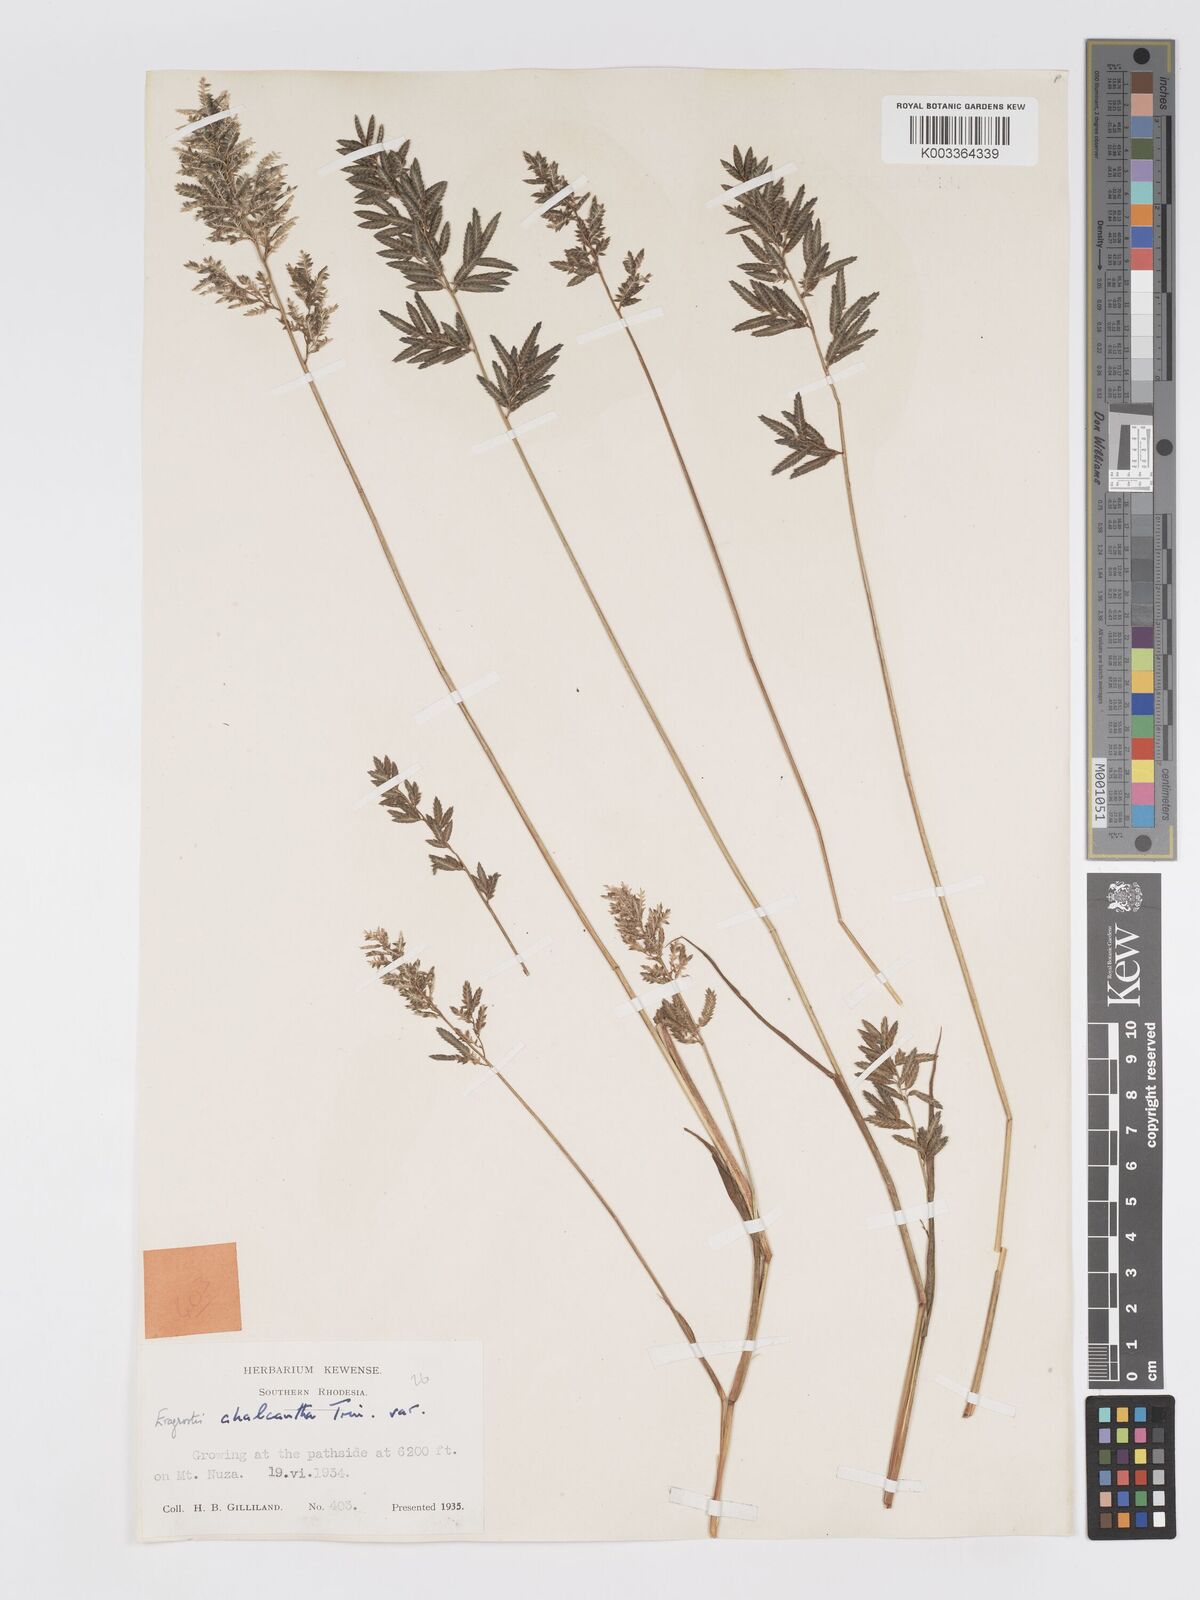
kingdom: Plantae
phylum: Tracheophyta
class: Liliopsida
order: Poales
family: Poaceae
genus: Eragrostis
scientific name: Eragrostis racemosa
